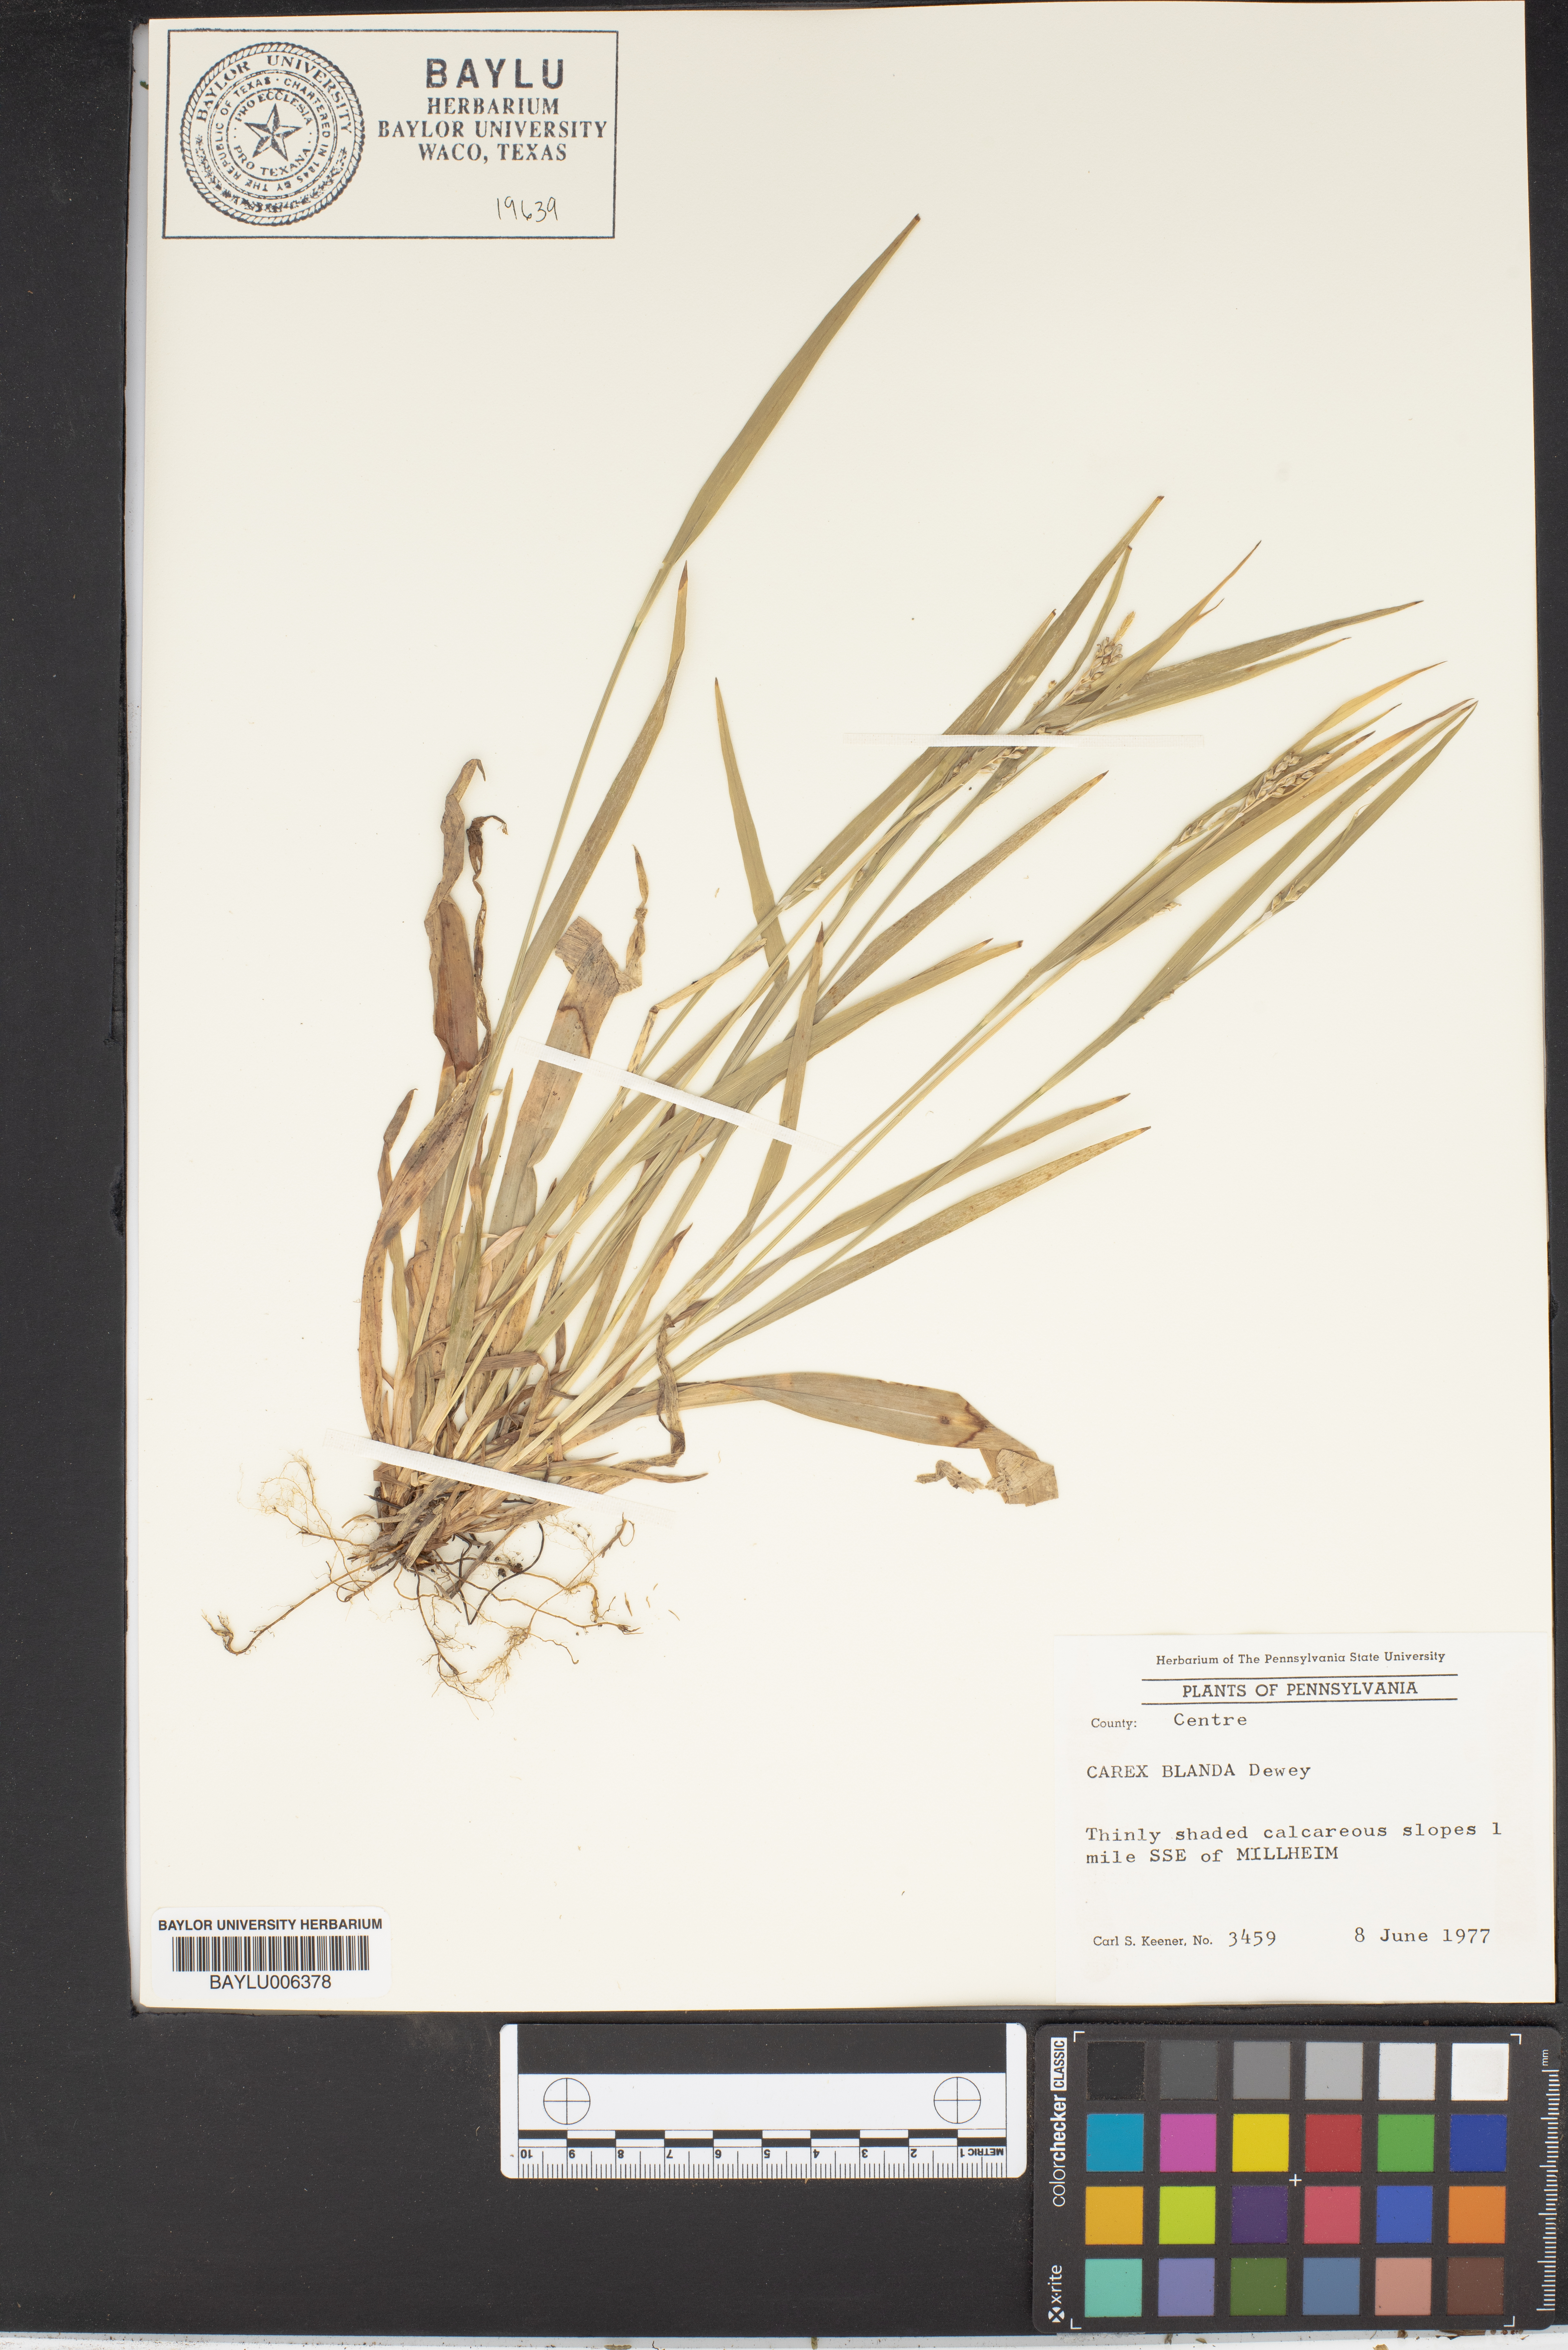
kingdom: Plantae
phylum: Tracheophyta
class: Liliopsida
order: Poales
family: Cyperaceae
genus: Carex
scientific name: Carex blanda
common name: Bland sedge
